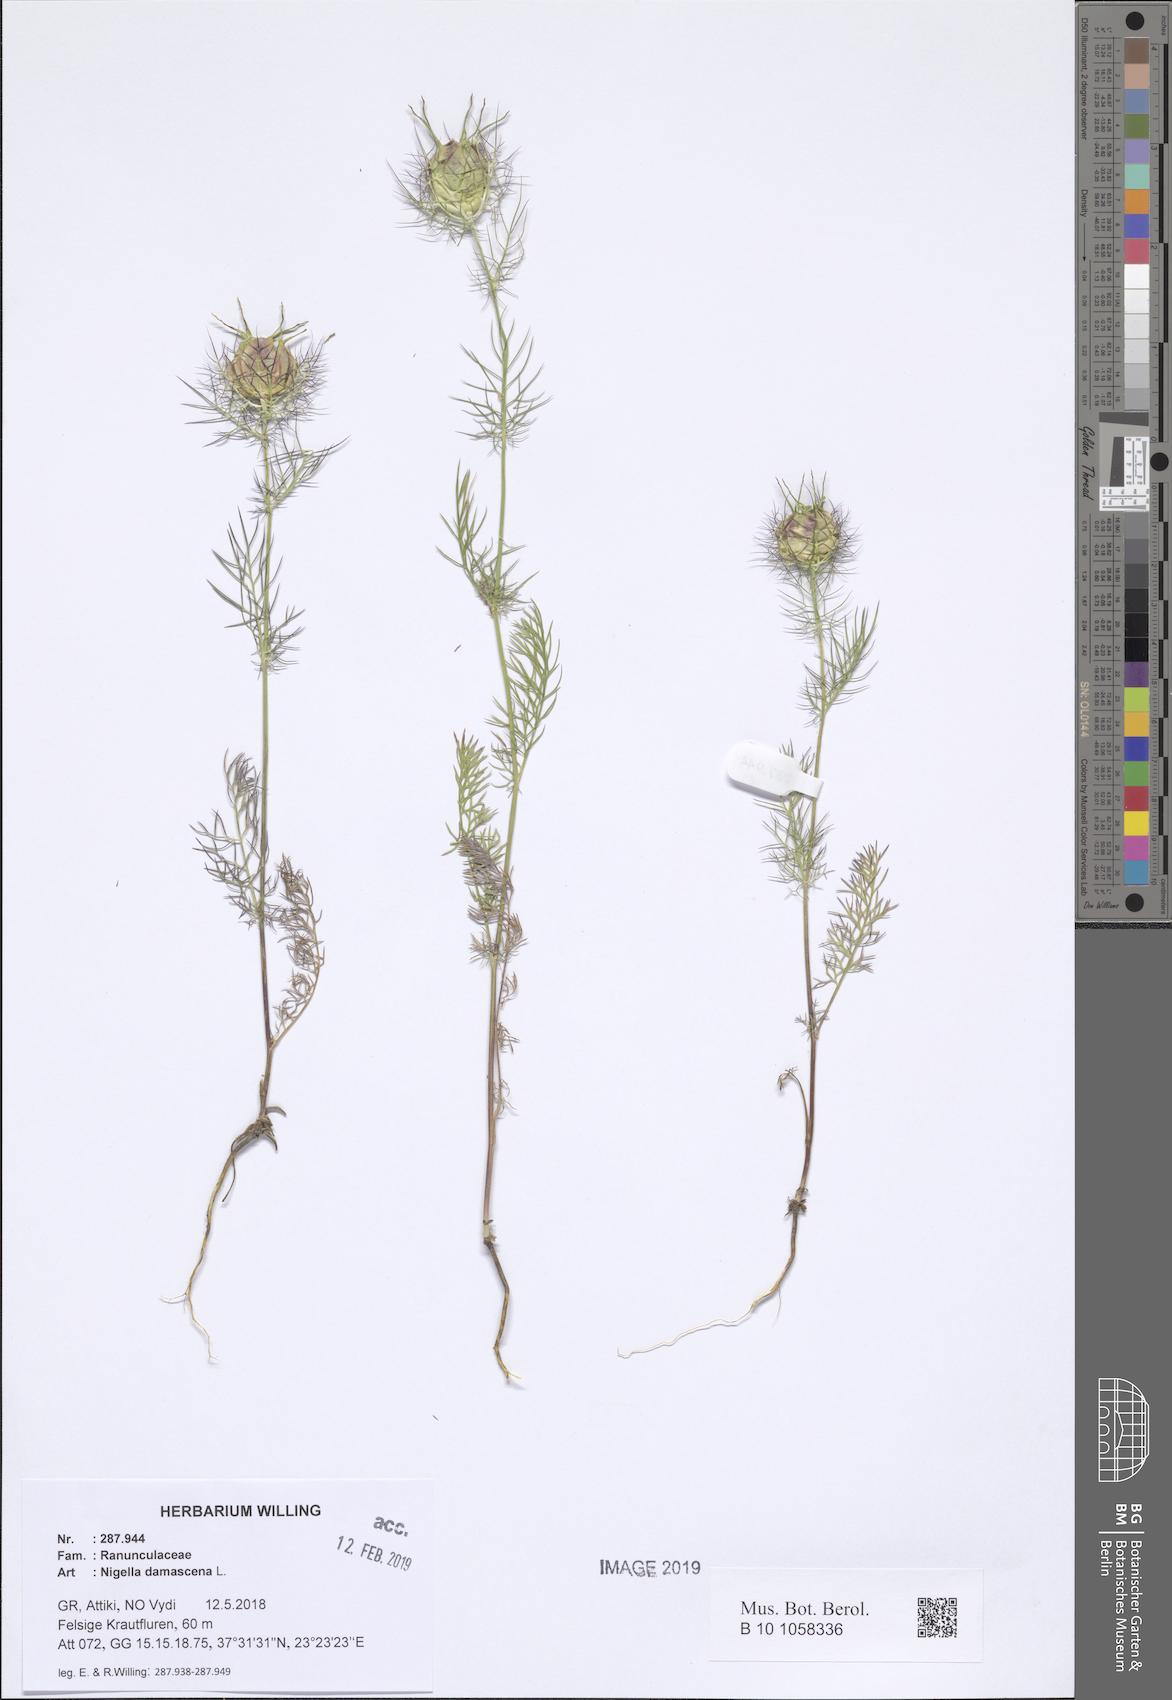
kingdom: Plantae
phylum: Tracheophyta
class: Magnoliopsida
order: Ranunculales
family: Ranunculaceae
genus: Nigella
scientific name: Nigella damascena
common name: Love-in-a-mist
